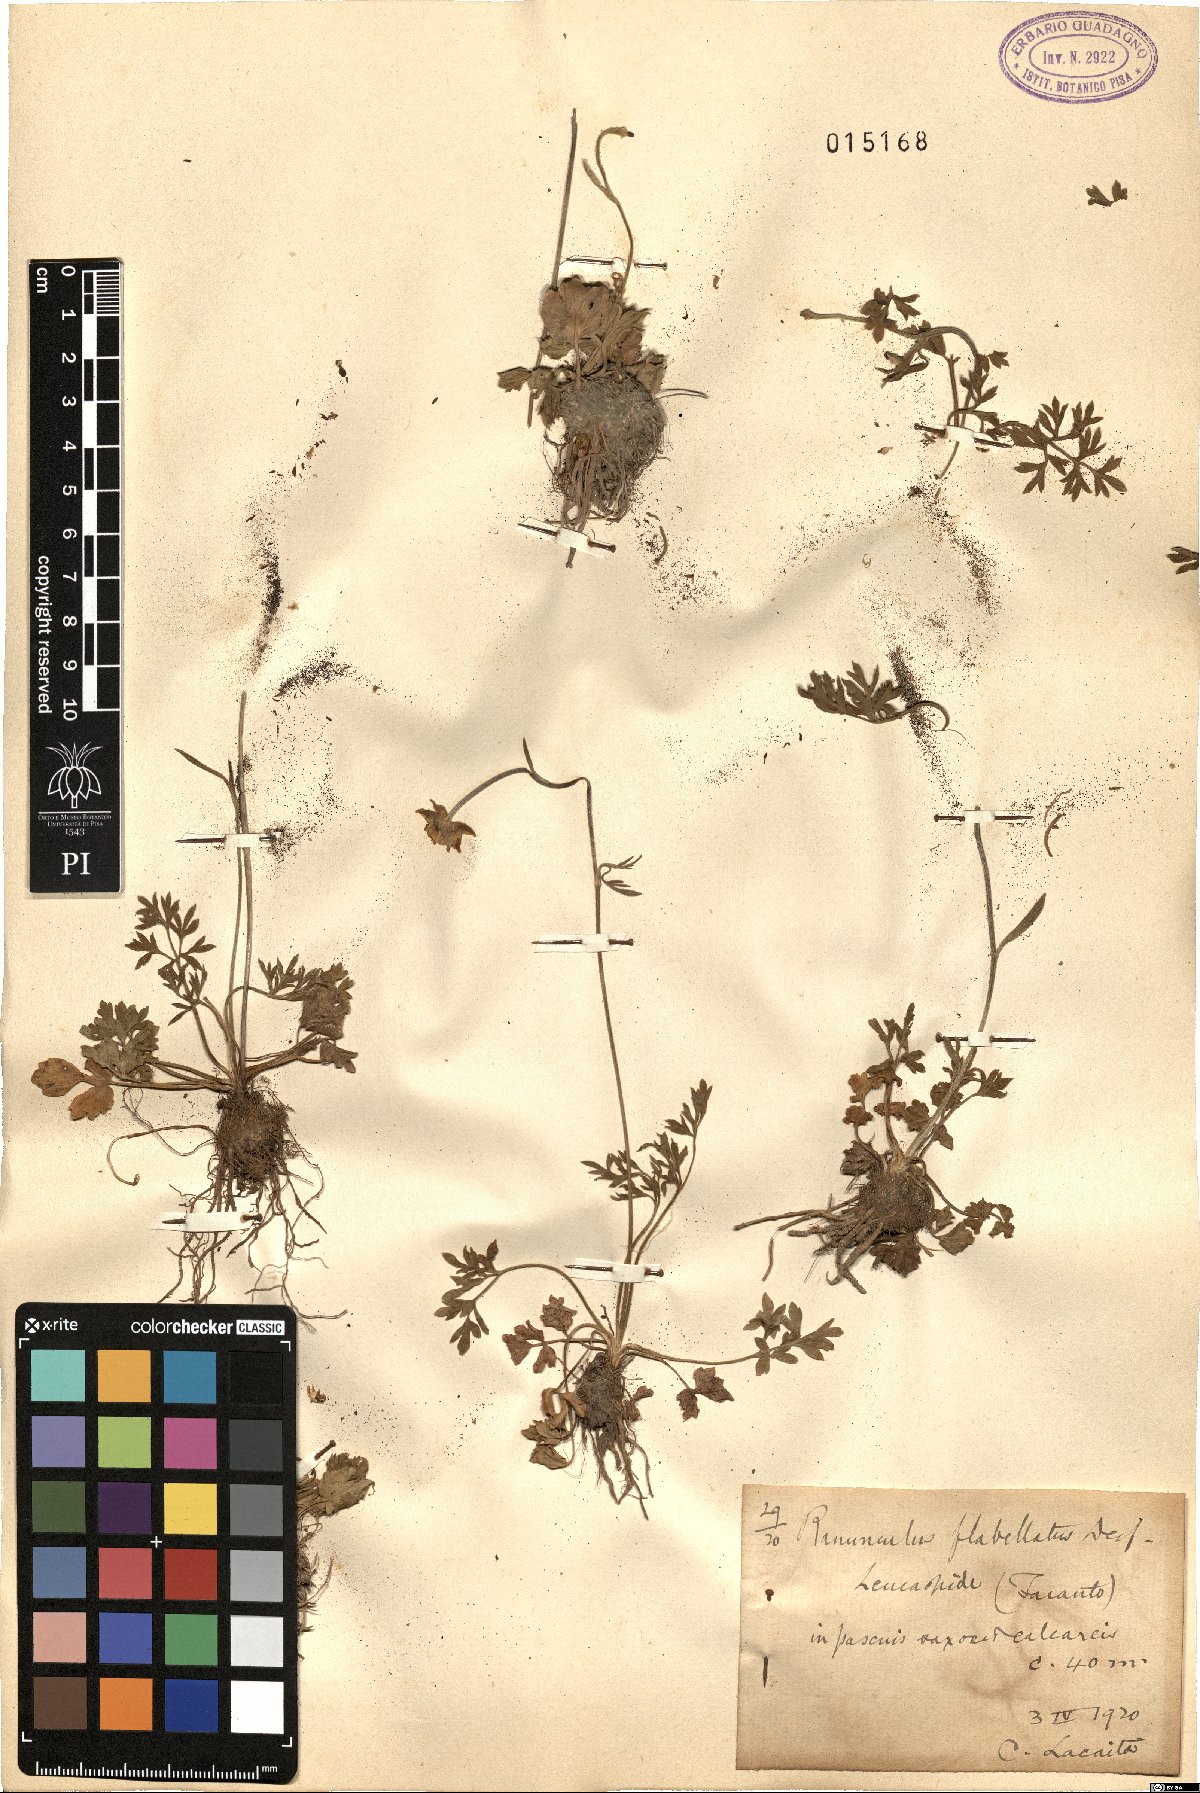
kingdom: Plantae
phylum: Tracheophyta
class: Magnoliopsida
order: Ranunculales
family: Ranunculaceae
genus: Ranunculus
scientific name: Ranunculus paludosus
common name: Jersey buttercup
